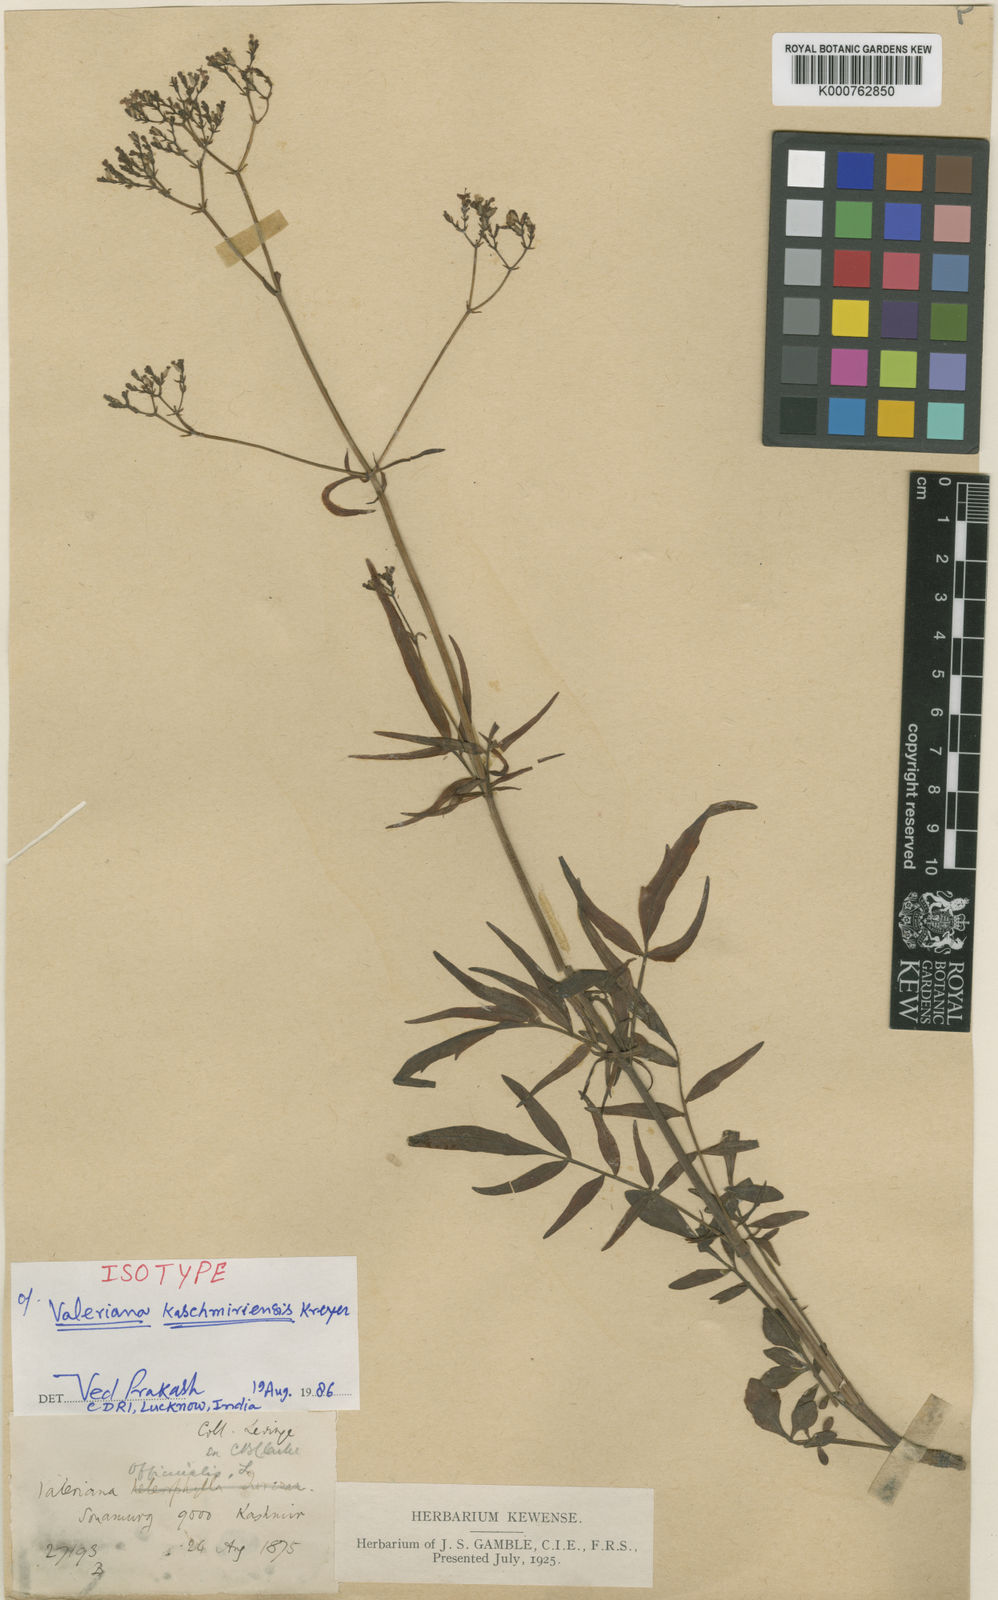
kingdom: Plantae
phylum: Tracheophyta
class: Magnoliopsida
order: Dipsacales
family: Caprifoliaceae
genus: Valeriana
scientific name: Valeriana officinalis
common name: Common valerian
